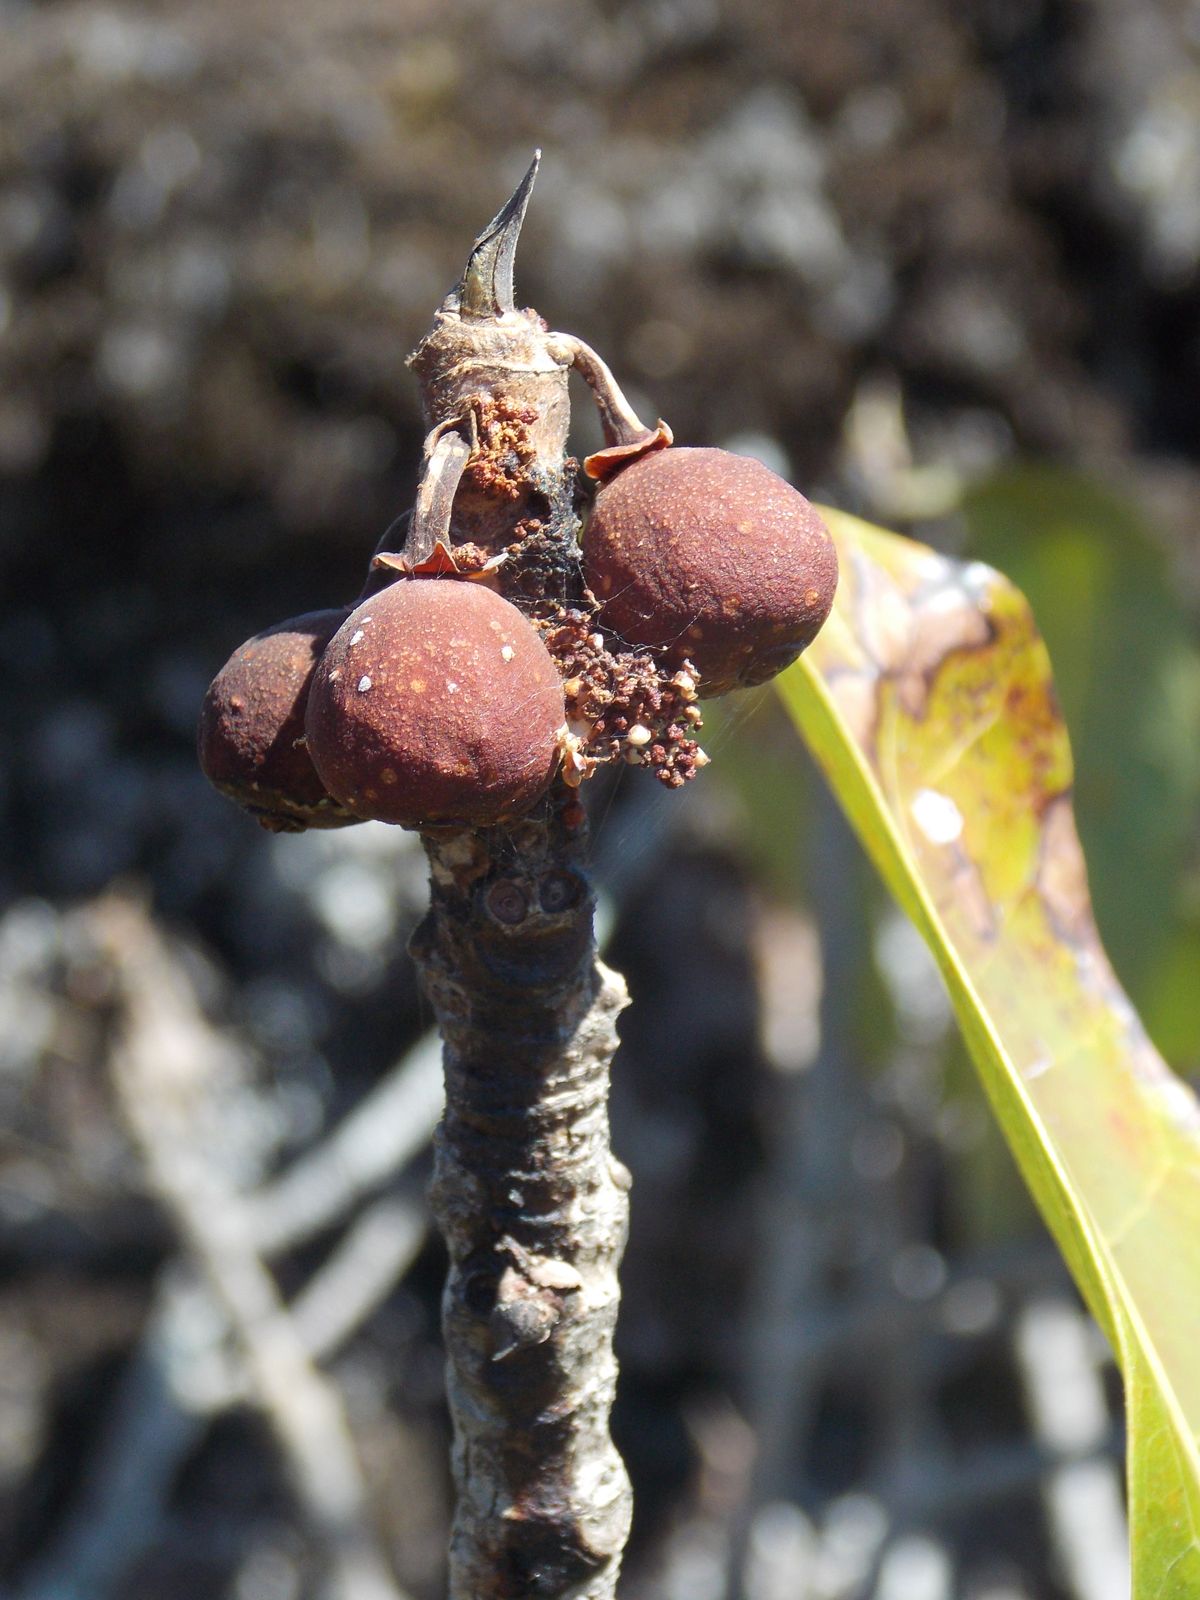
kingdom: Plantae
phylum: Tracheophyta
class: Magnoliopsida
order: Rosales
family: Moraceae
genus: Ficus
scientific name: Ficus crocata
